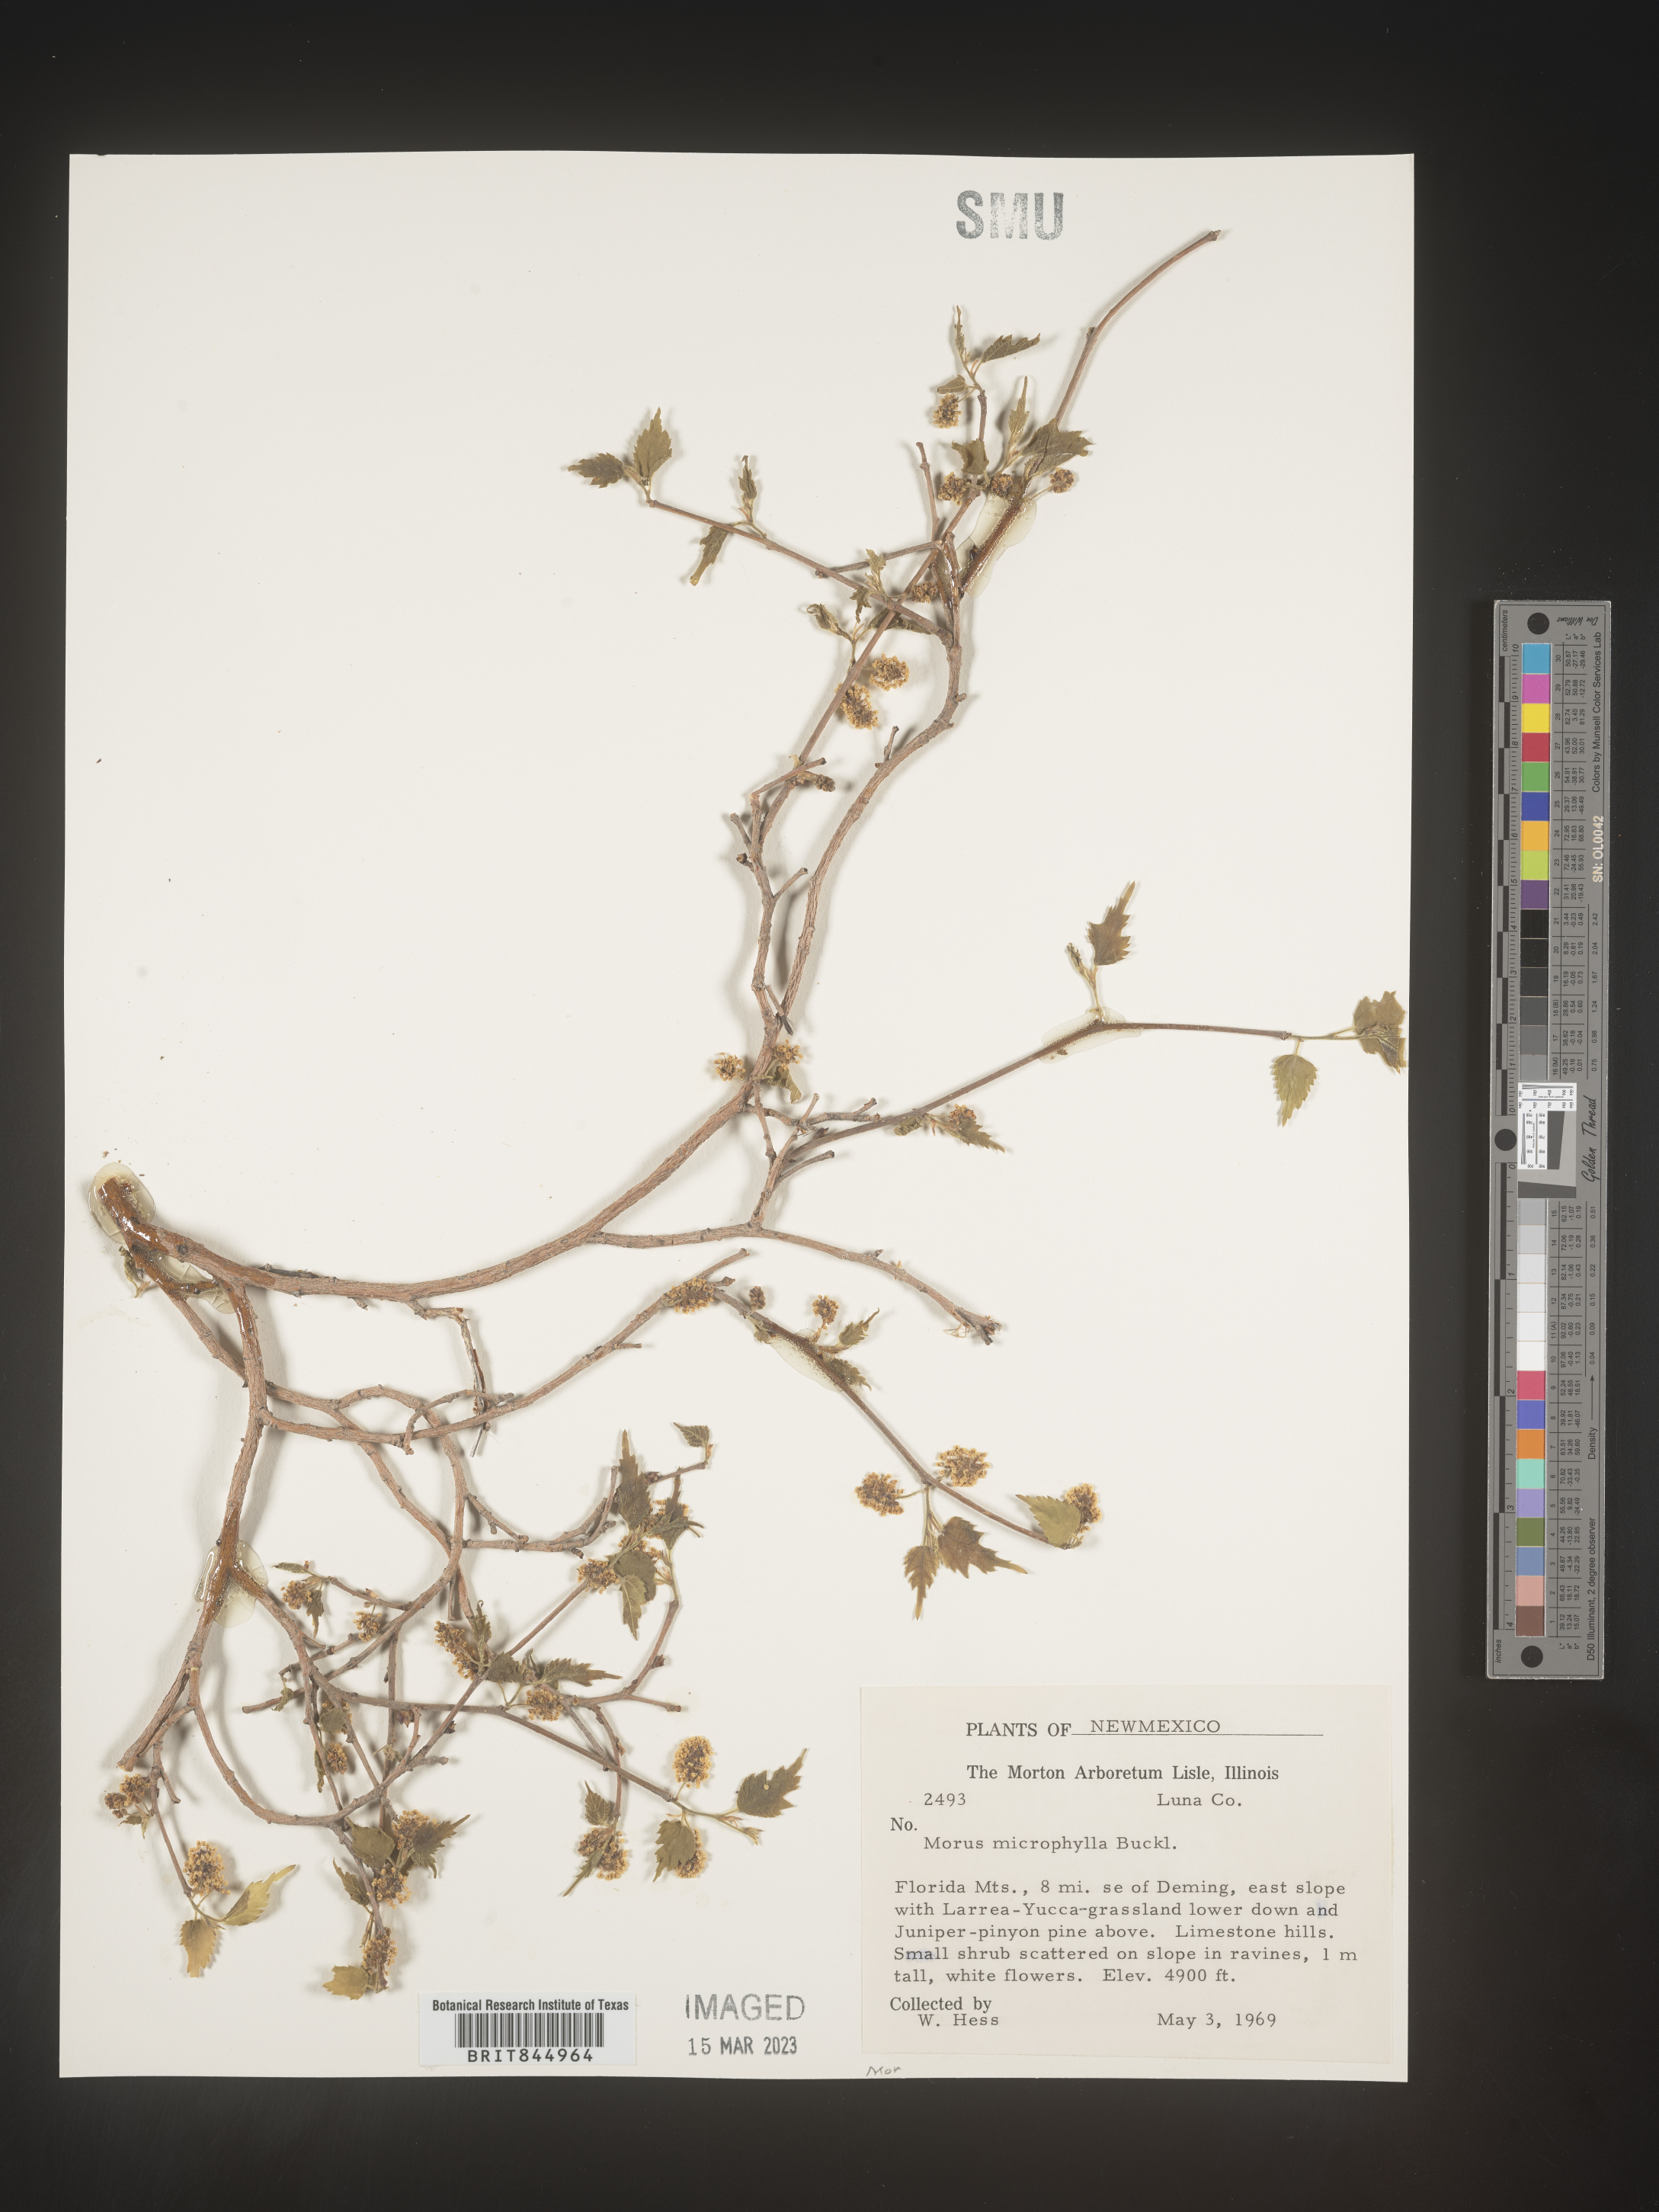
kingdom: Plantae
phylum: Tracheophyta
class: Magnoliopsida
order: Rosales
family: Moraceae
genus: Morus
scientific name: Morus microphylla
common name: Mexican mulberry
